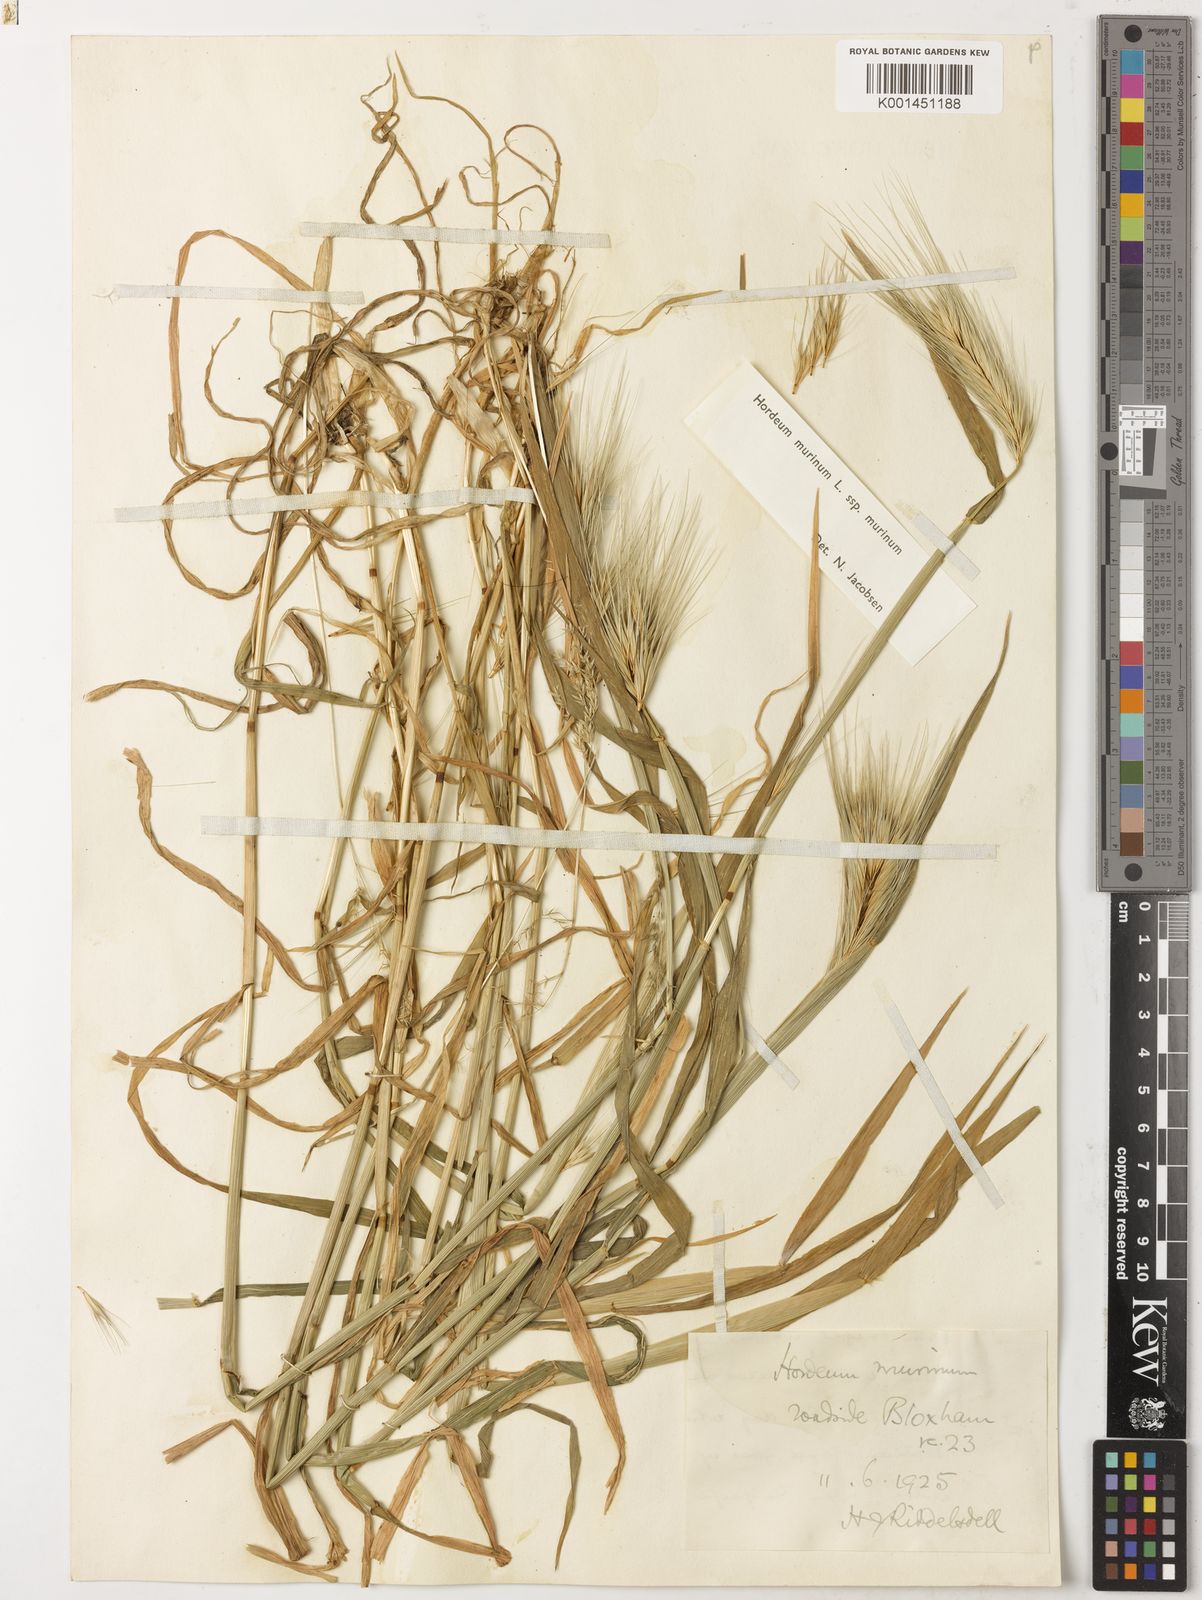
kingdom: Plantae
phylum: Tracheophyta
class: Liliopsida
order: Poales
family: Poaceae
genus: Hordeum
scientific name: Hordeum murinum
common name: Wall barley
